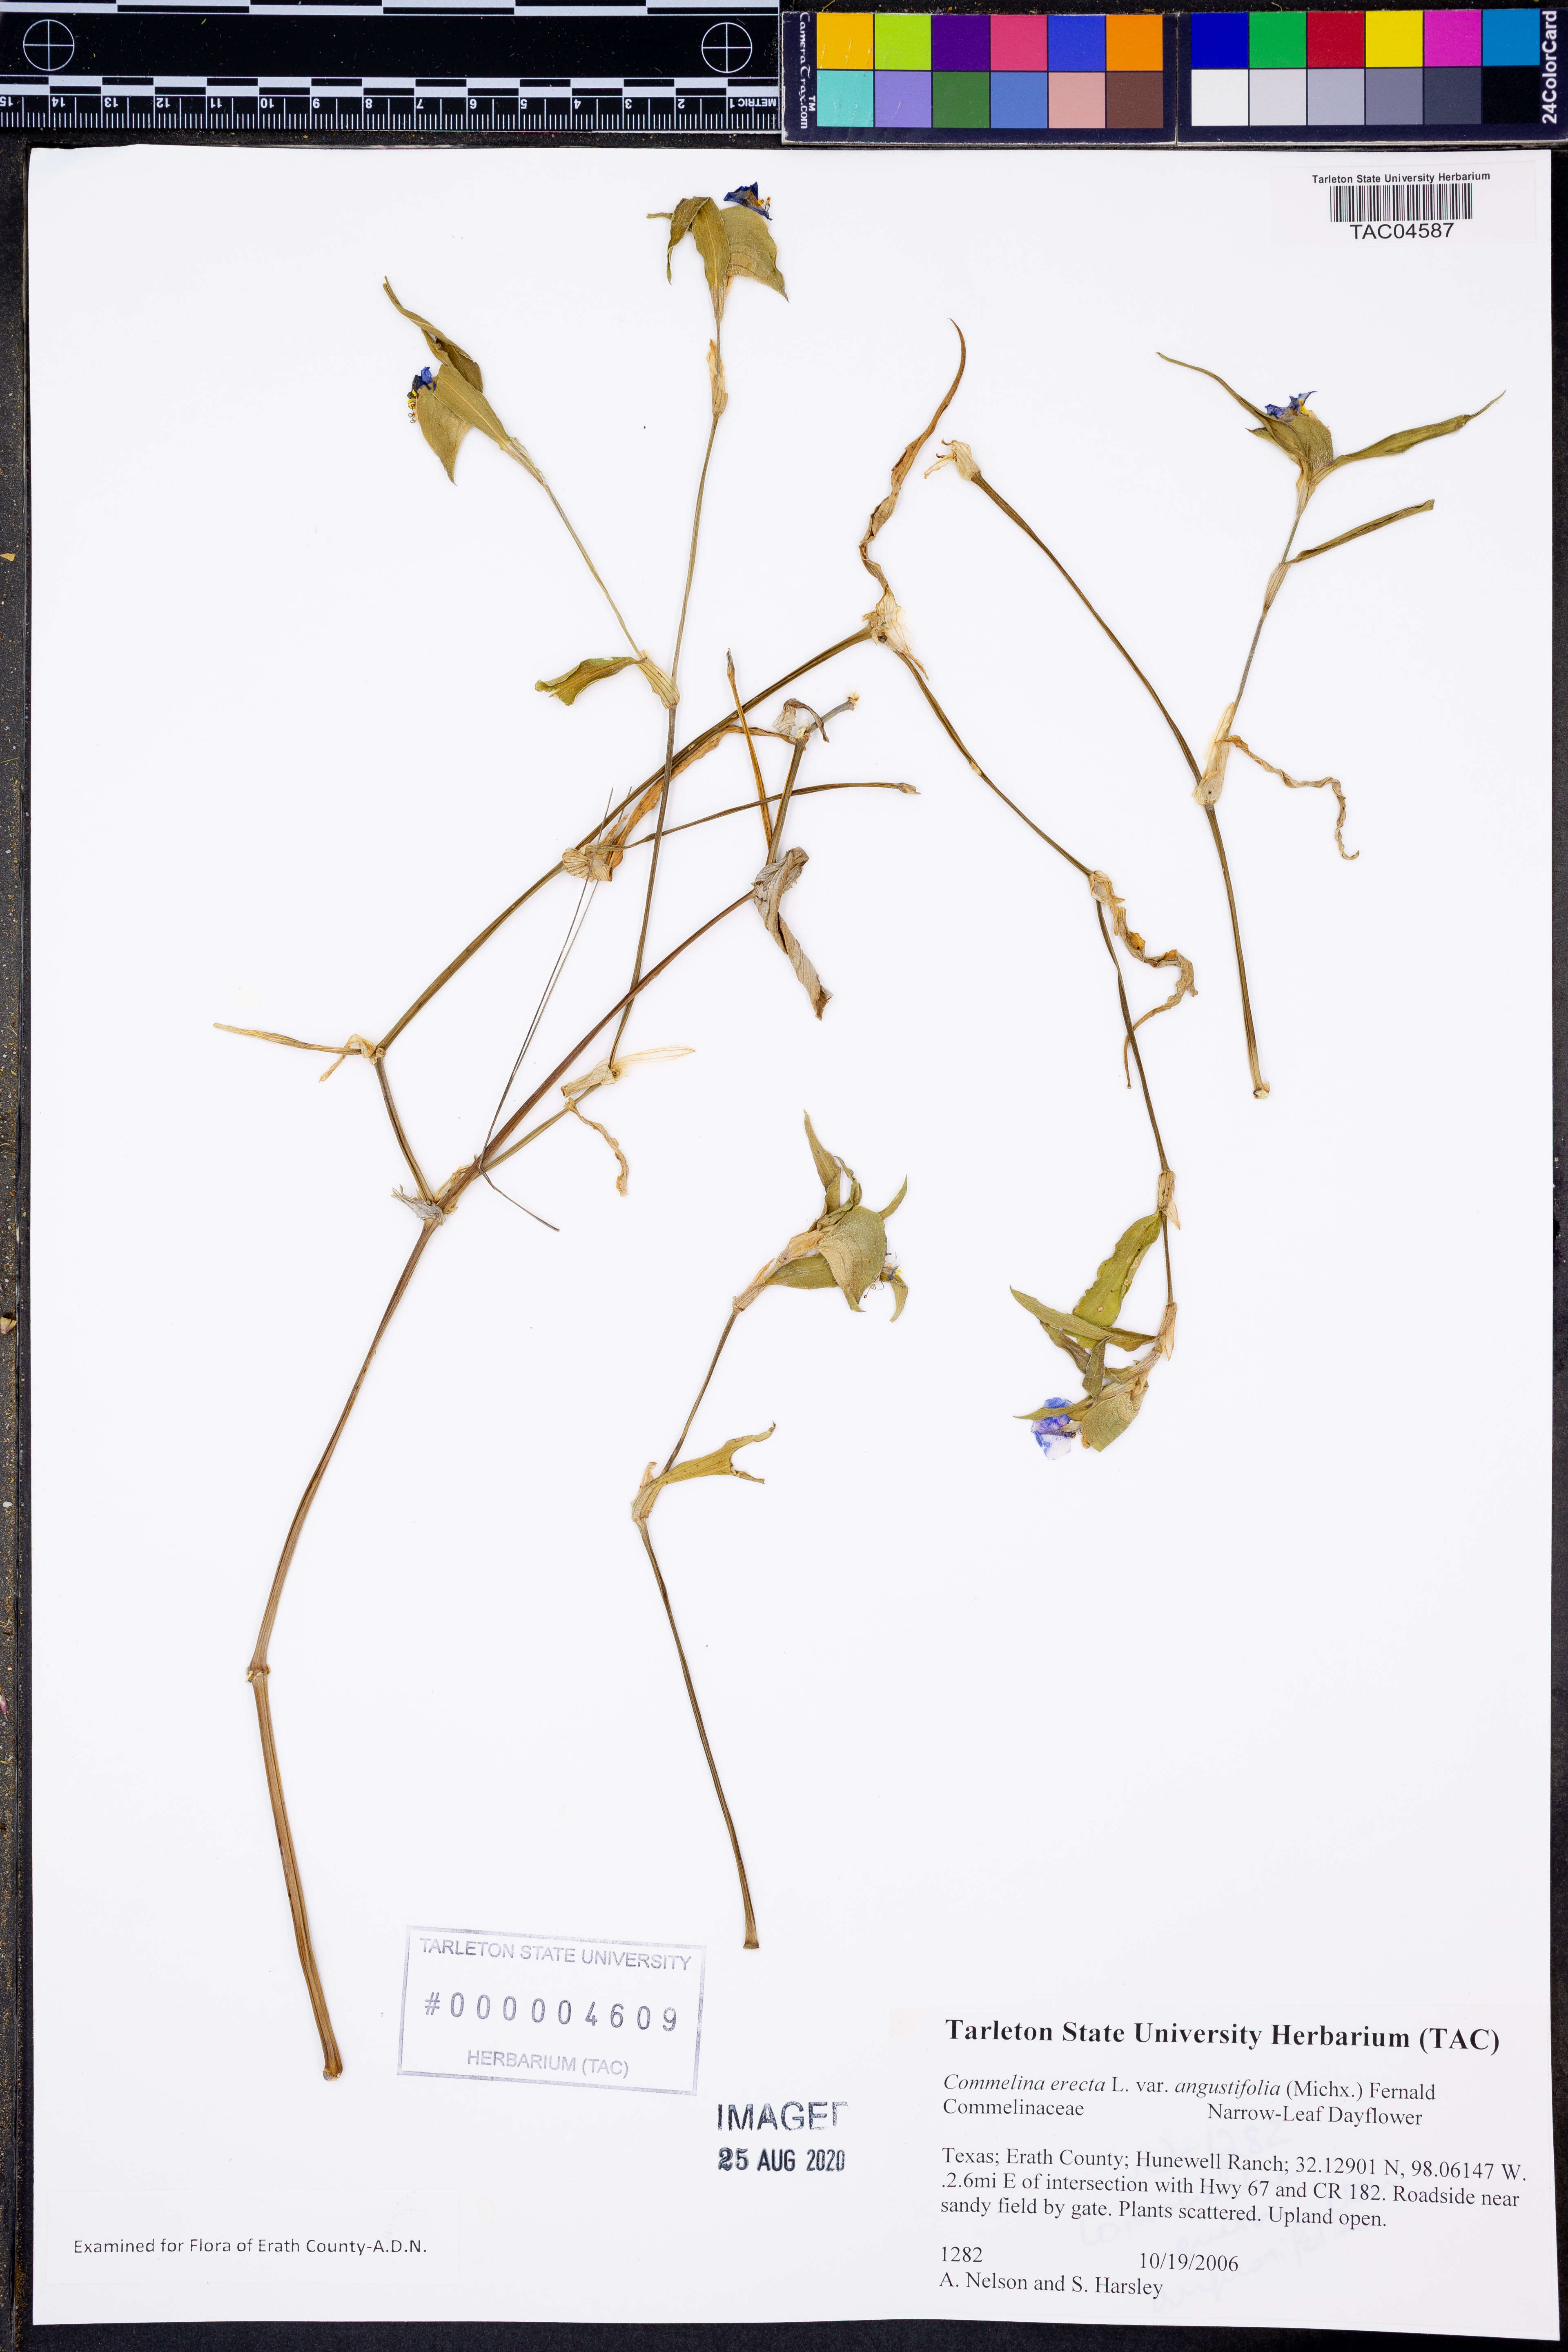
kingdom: Plantae
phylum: Tracheophyta
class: Liliopsida
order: Commelinales
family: Commelinaceae
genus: Commelina
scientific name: Commelina erecta
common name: Blousel blommetjie
